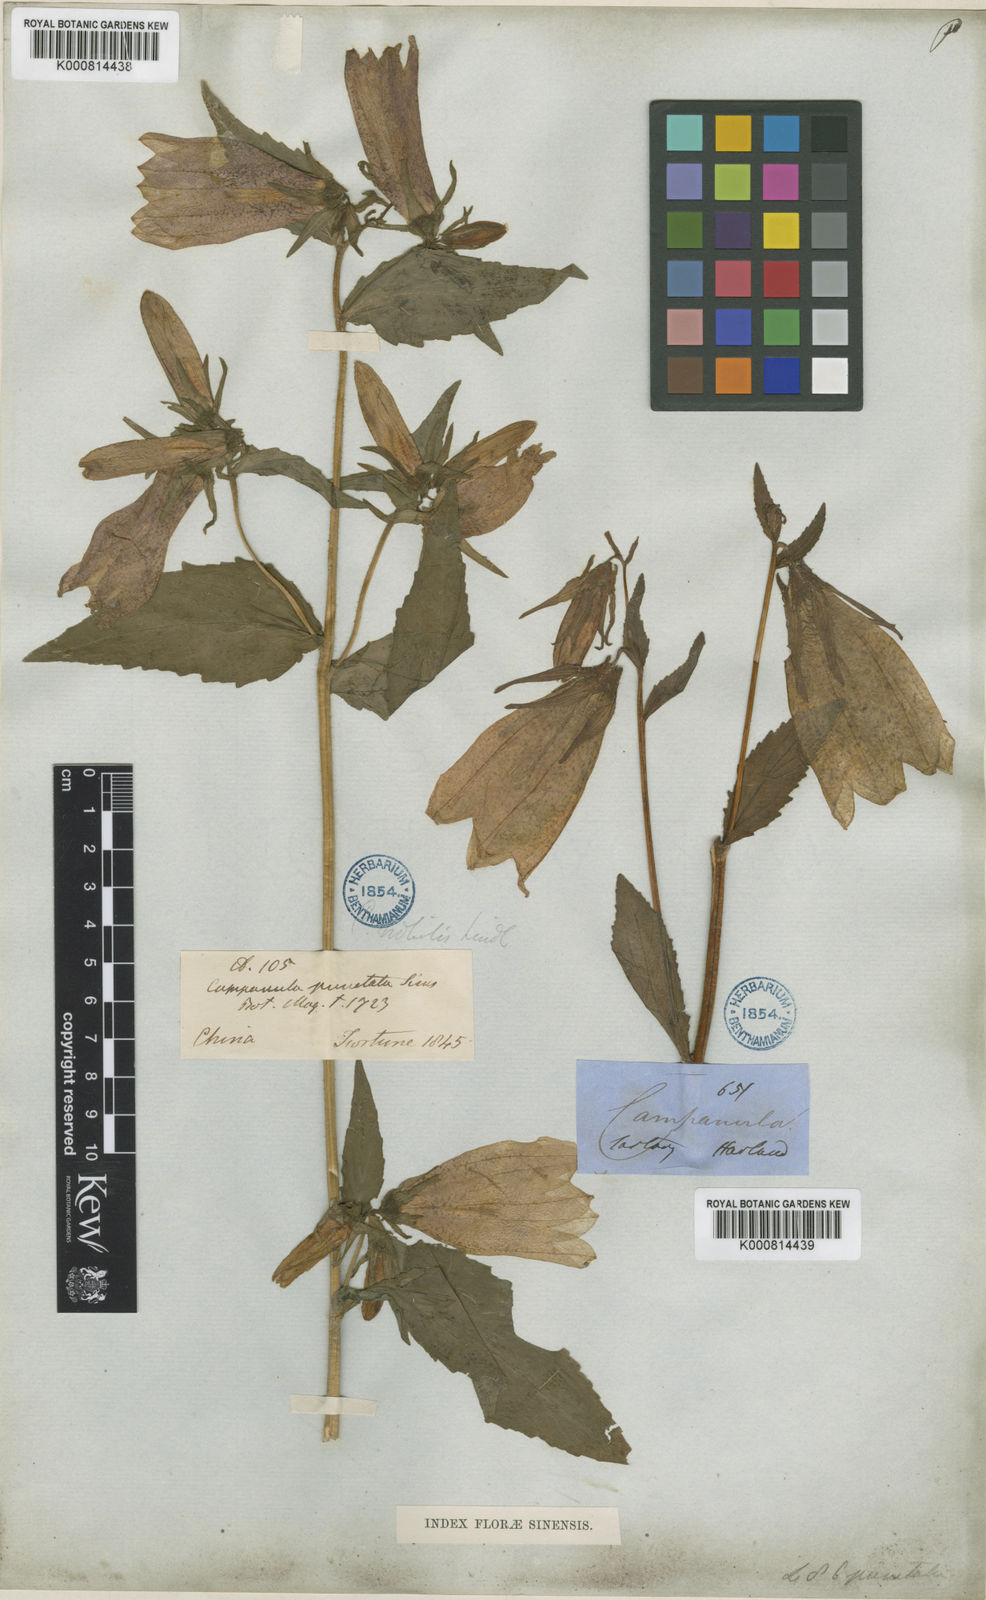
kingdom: Plantae
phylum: Tracheophyta
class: Magnoliopsida
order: Asterales
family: Campanulaceae
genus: Campanula
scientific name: Campanula punctata
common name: Spotted bellflower
